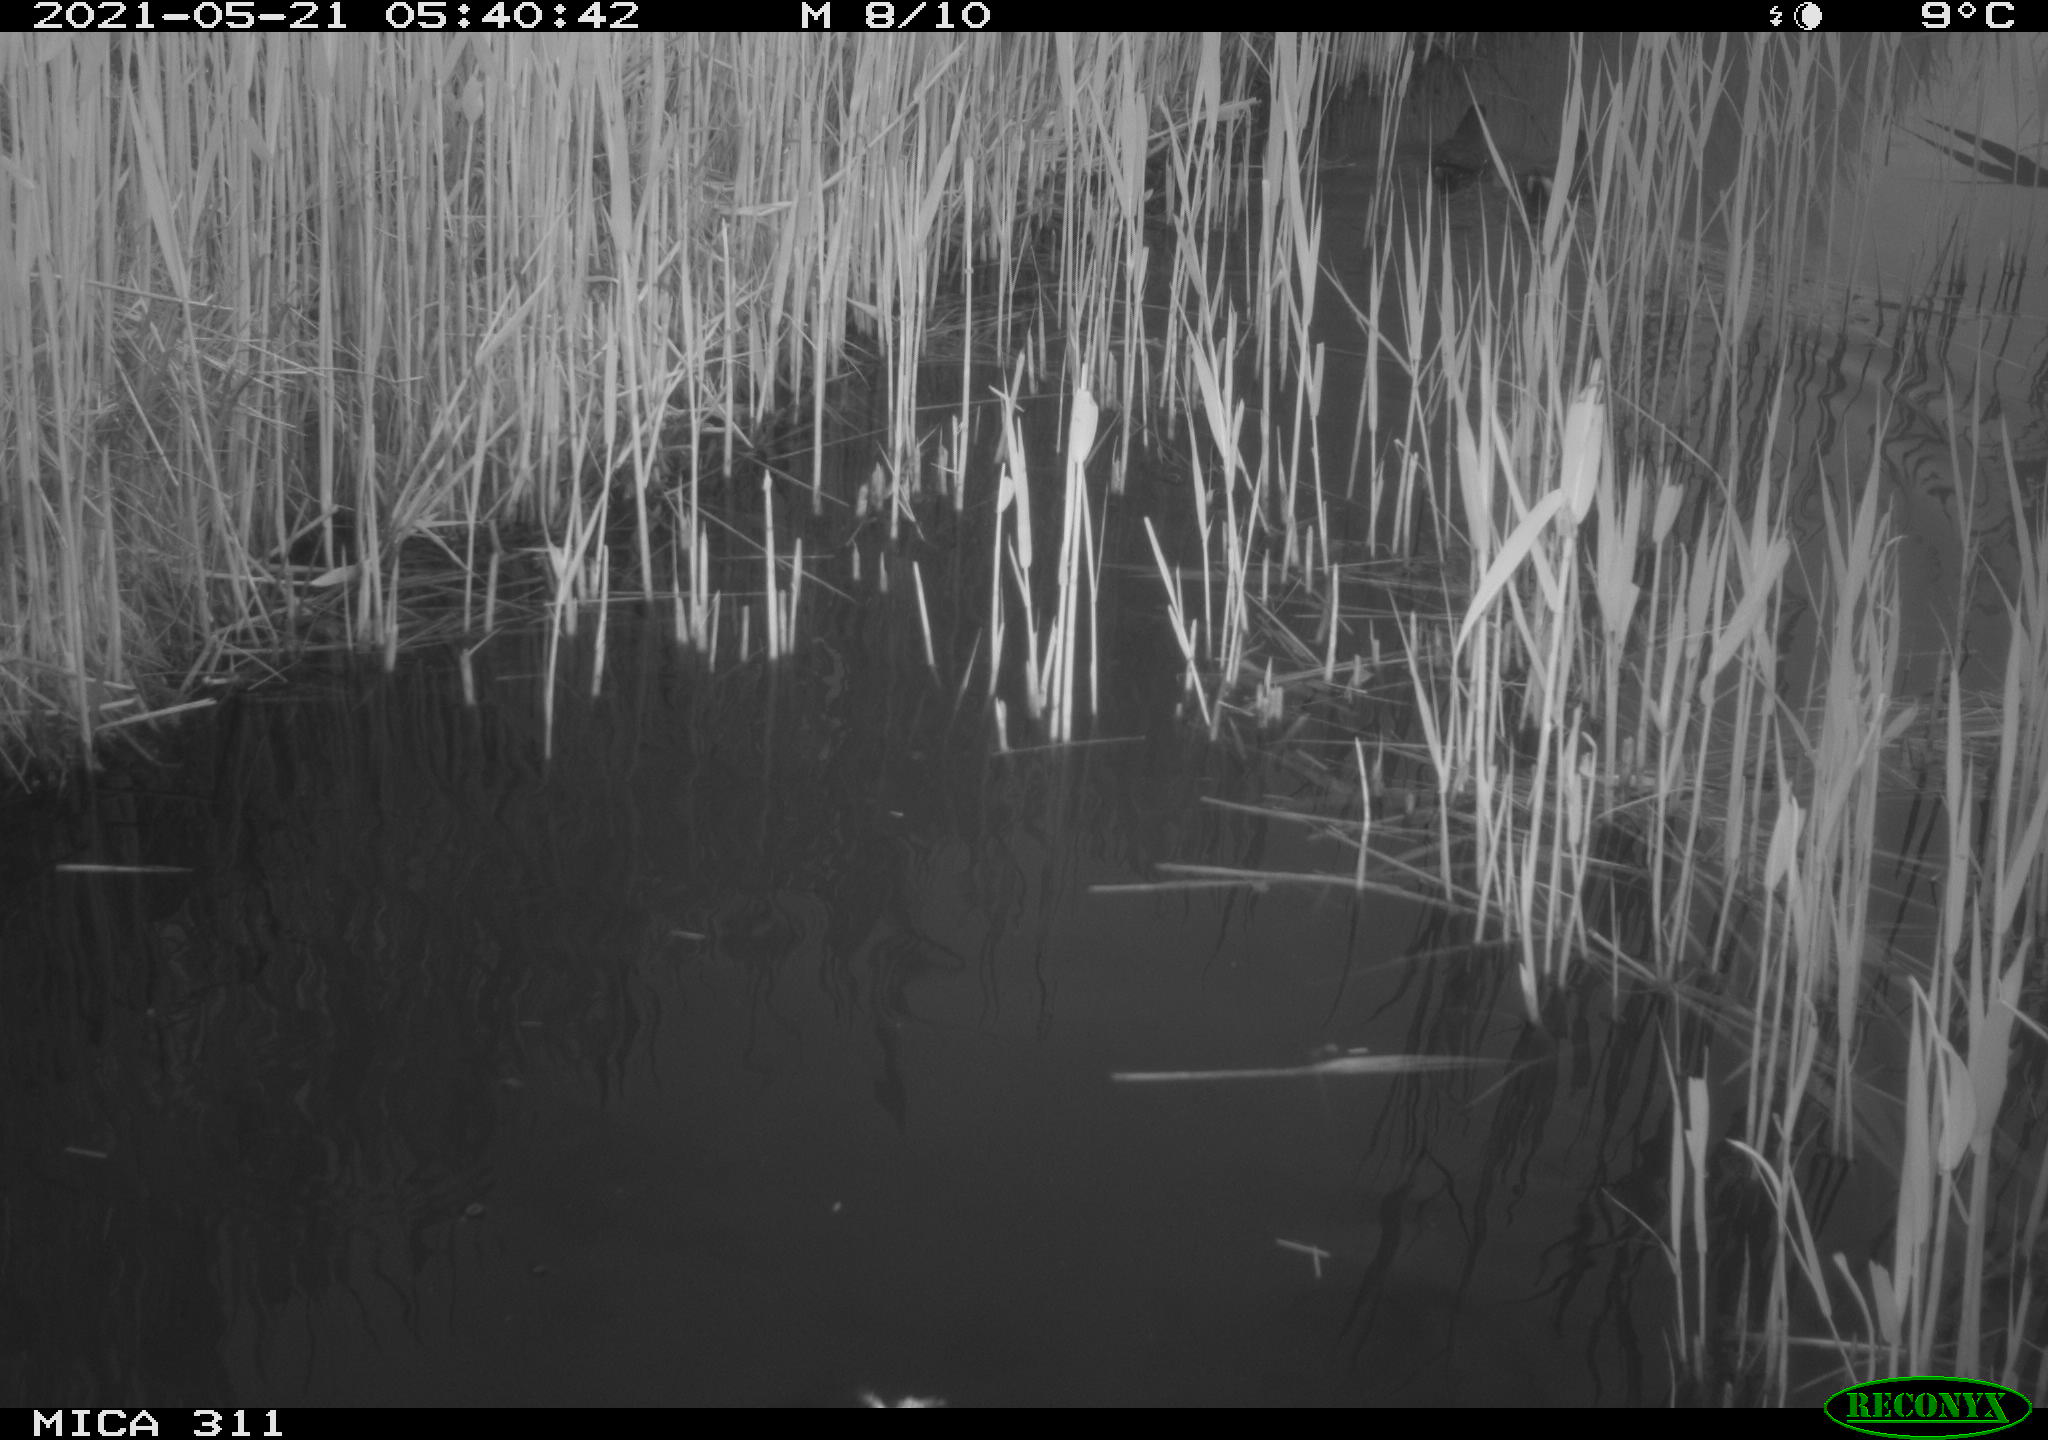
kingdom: Animalia
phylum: Chordata
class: Aves
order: Gruiformes
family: Rallidae
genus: Gallinula
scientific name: Gallinula chloropus
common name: Common moorhen
